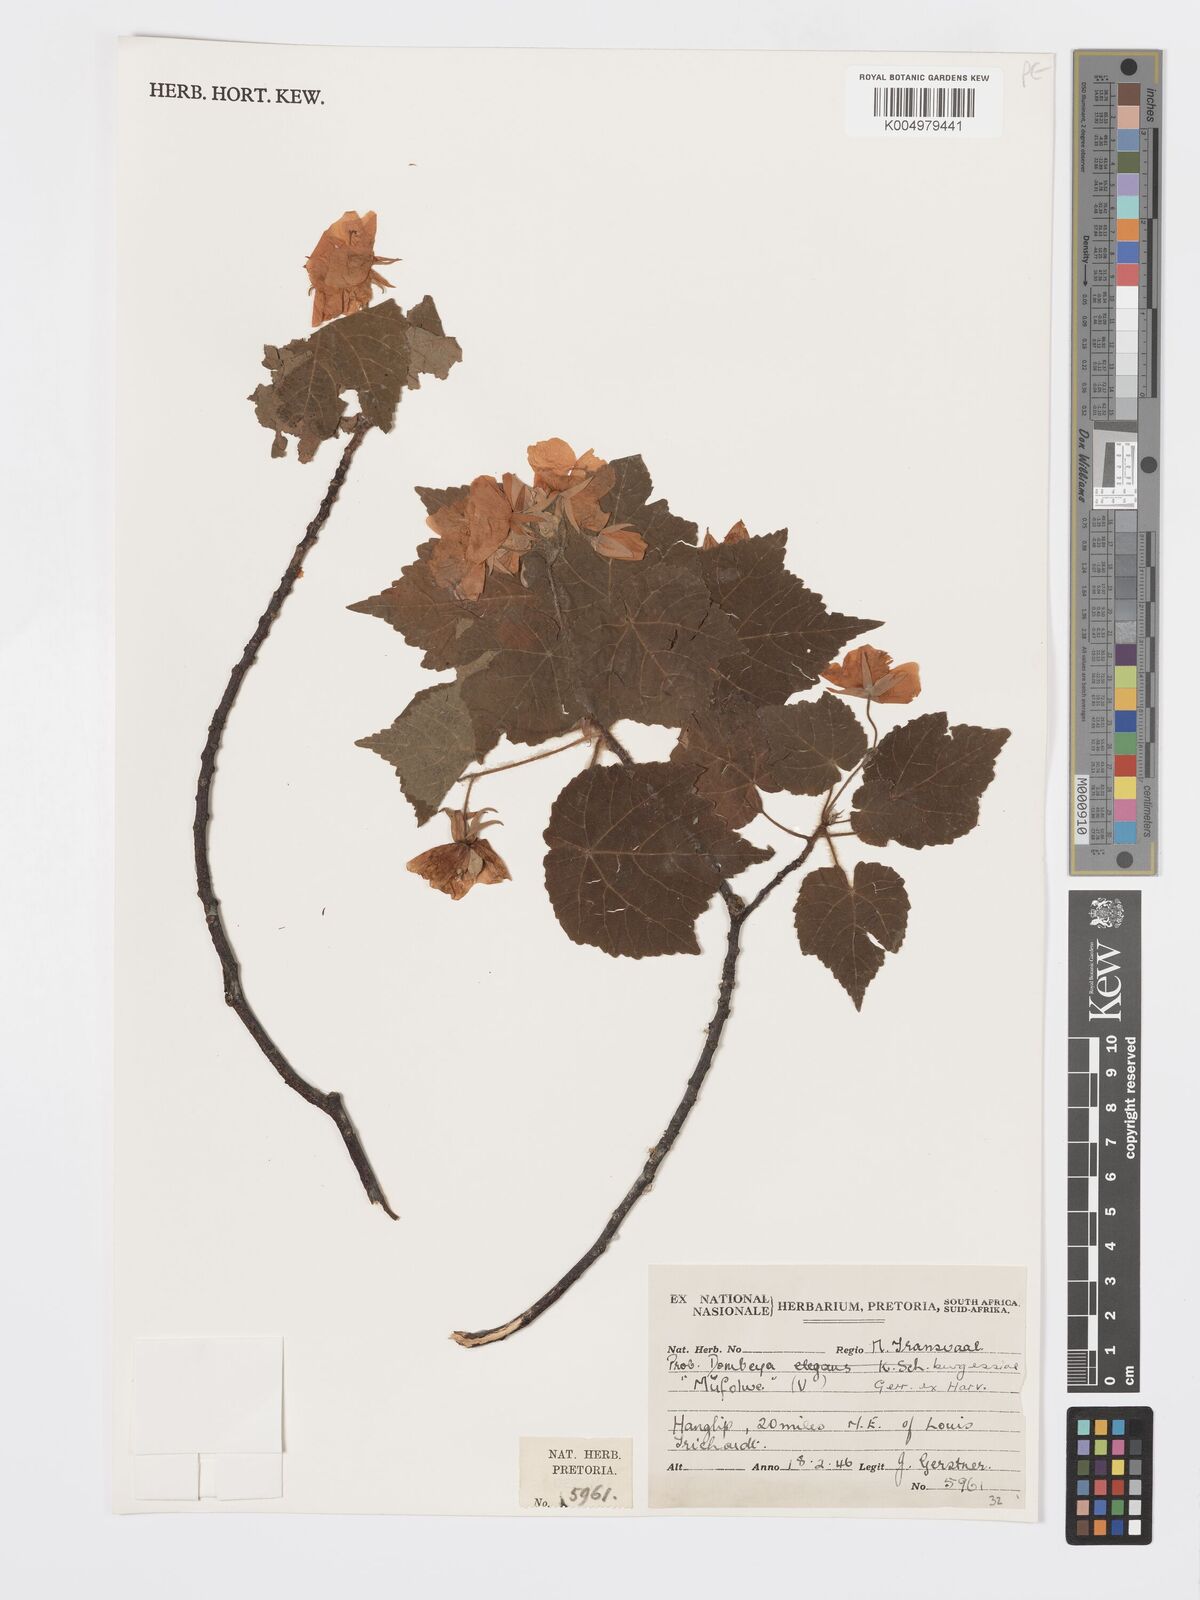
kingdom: Plantae
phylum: Tracheophyta
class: Magnoliopsida
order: Malvales
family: Malvaceae
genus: Dombeya
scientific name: Dombeya burgessiae
